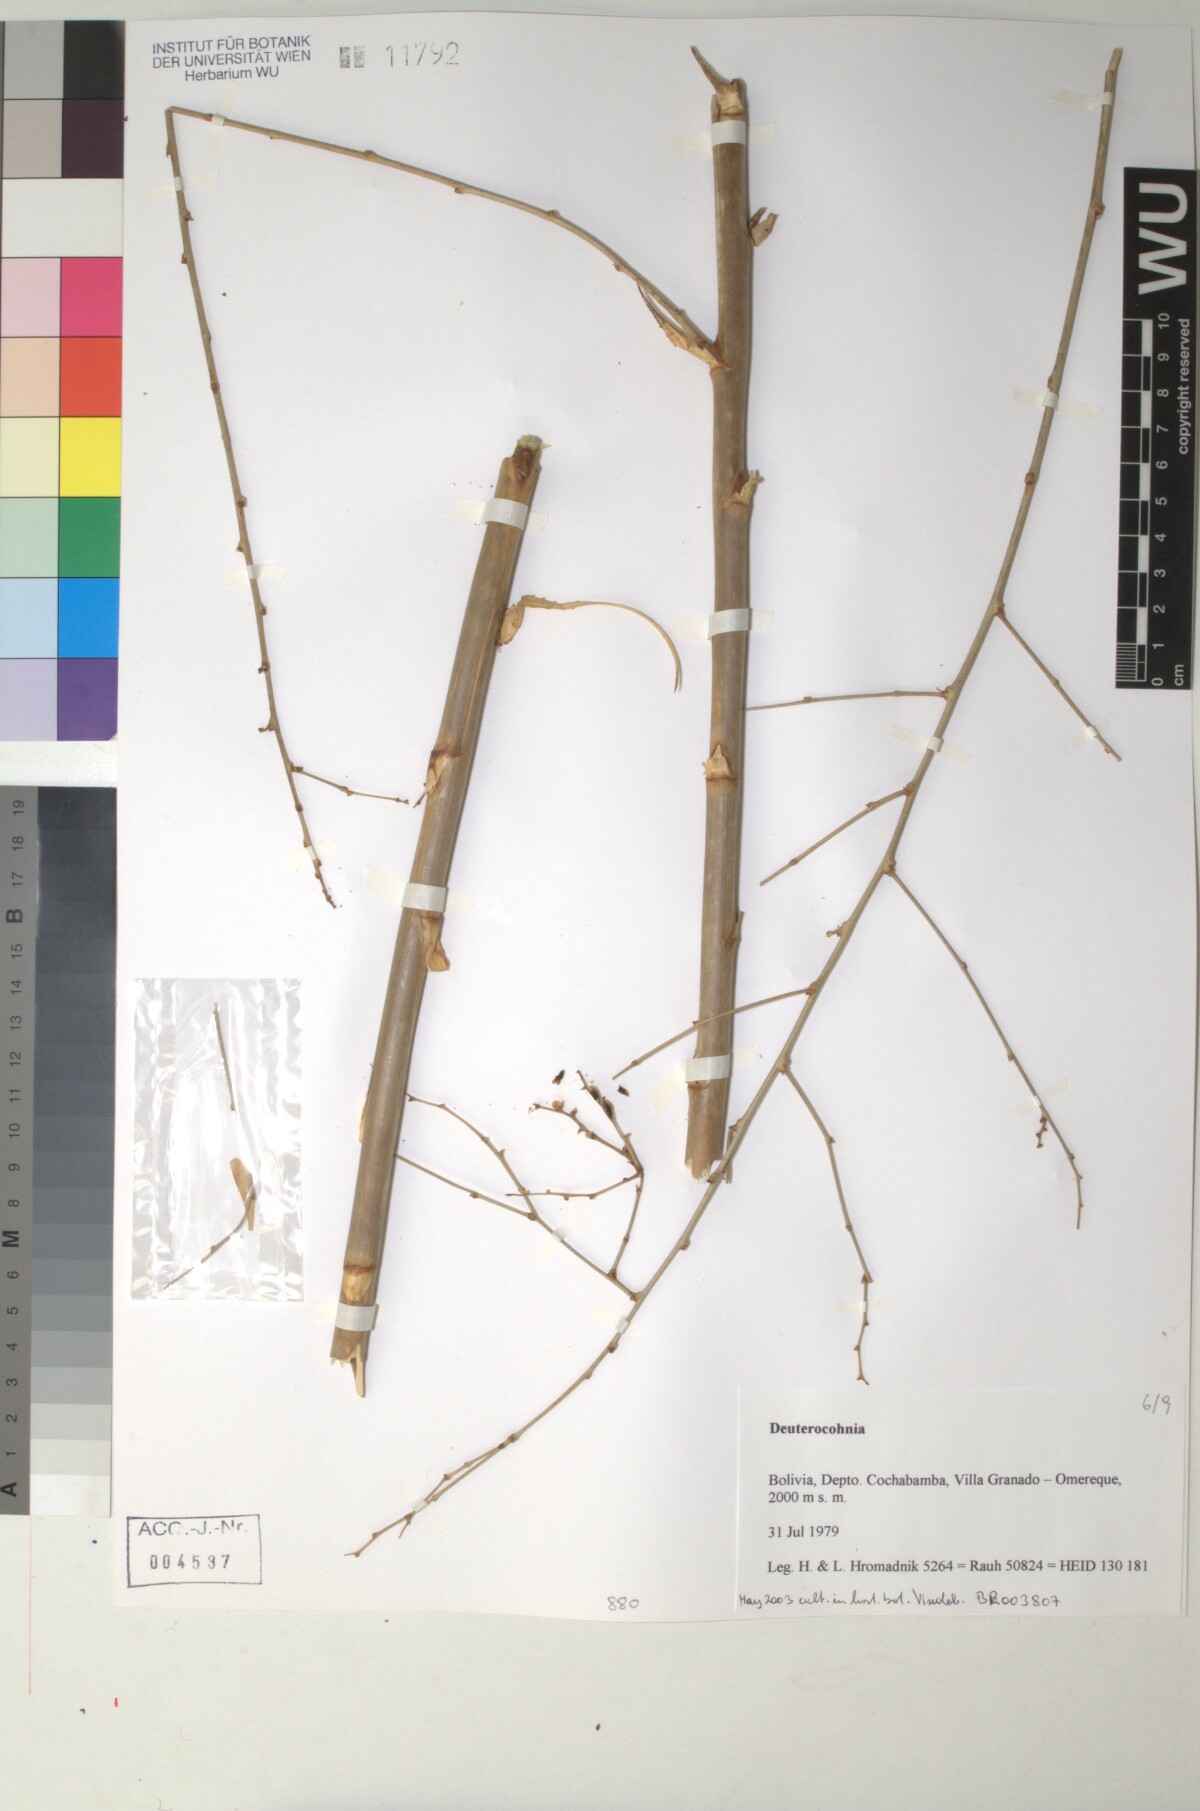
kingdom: Plantae
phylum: Tracheophyta
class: Liliopsida
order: Poales
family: Bromeliaceae
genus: Deuterocohnia
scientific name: Deuterocohnia meziana
